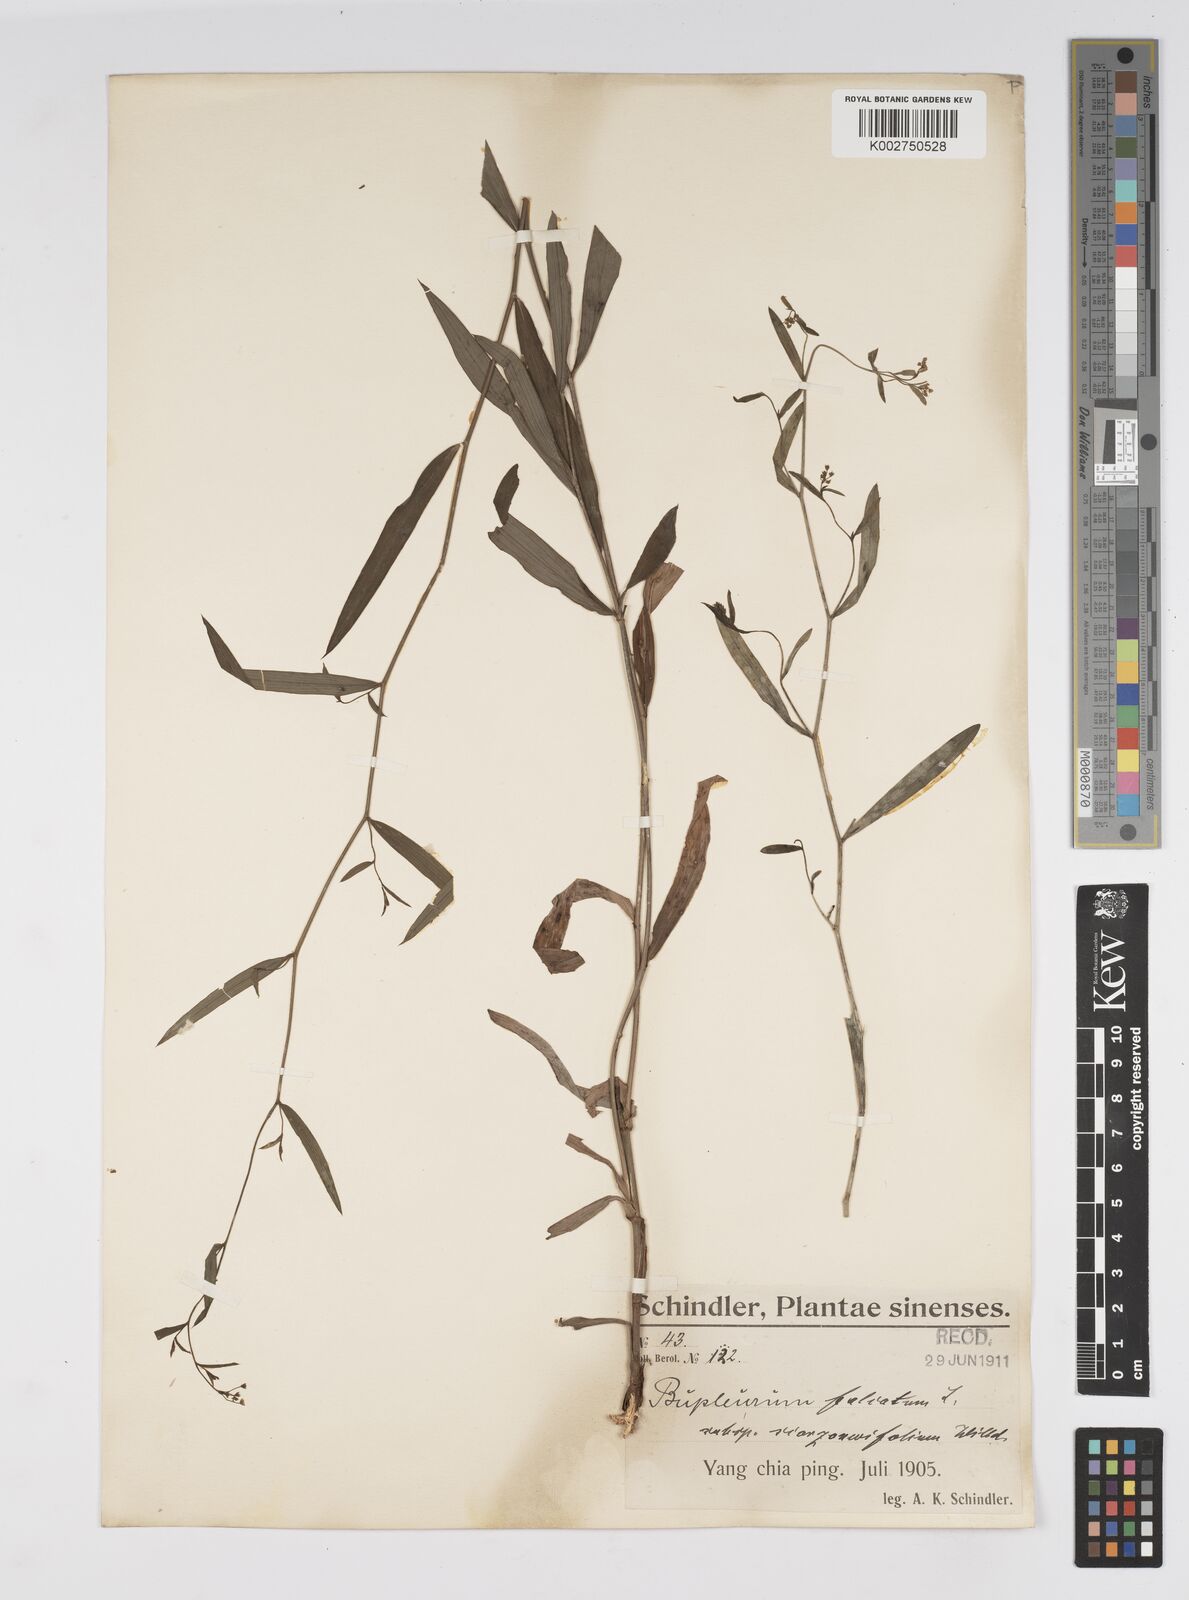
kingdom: Plantae
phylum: Tracheophyta
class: Magnoliopsida
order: Apiales
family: Apiaceae
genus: Bupleurum
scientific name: Bupleurum scorzonerifolium
